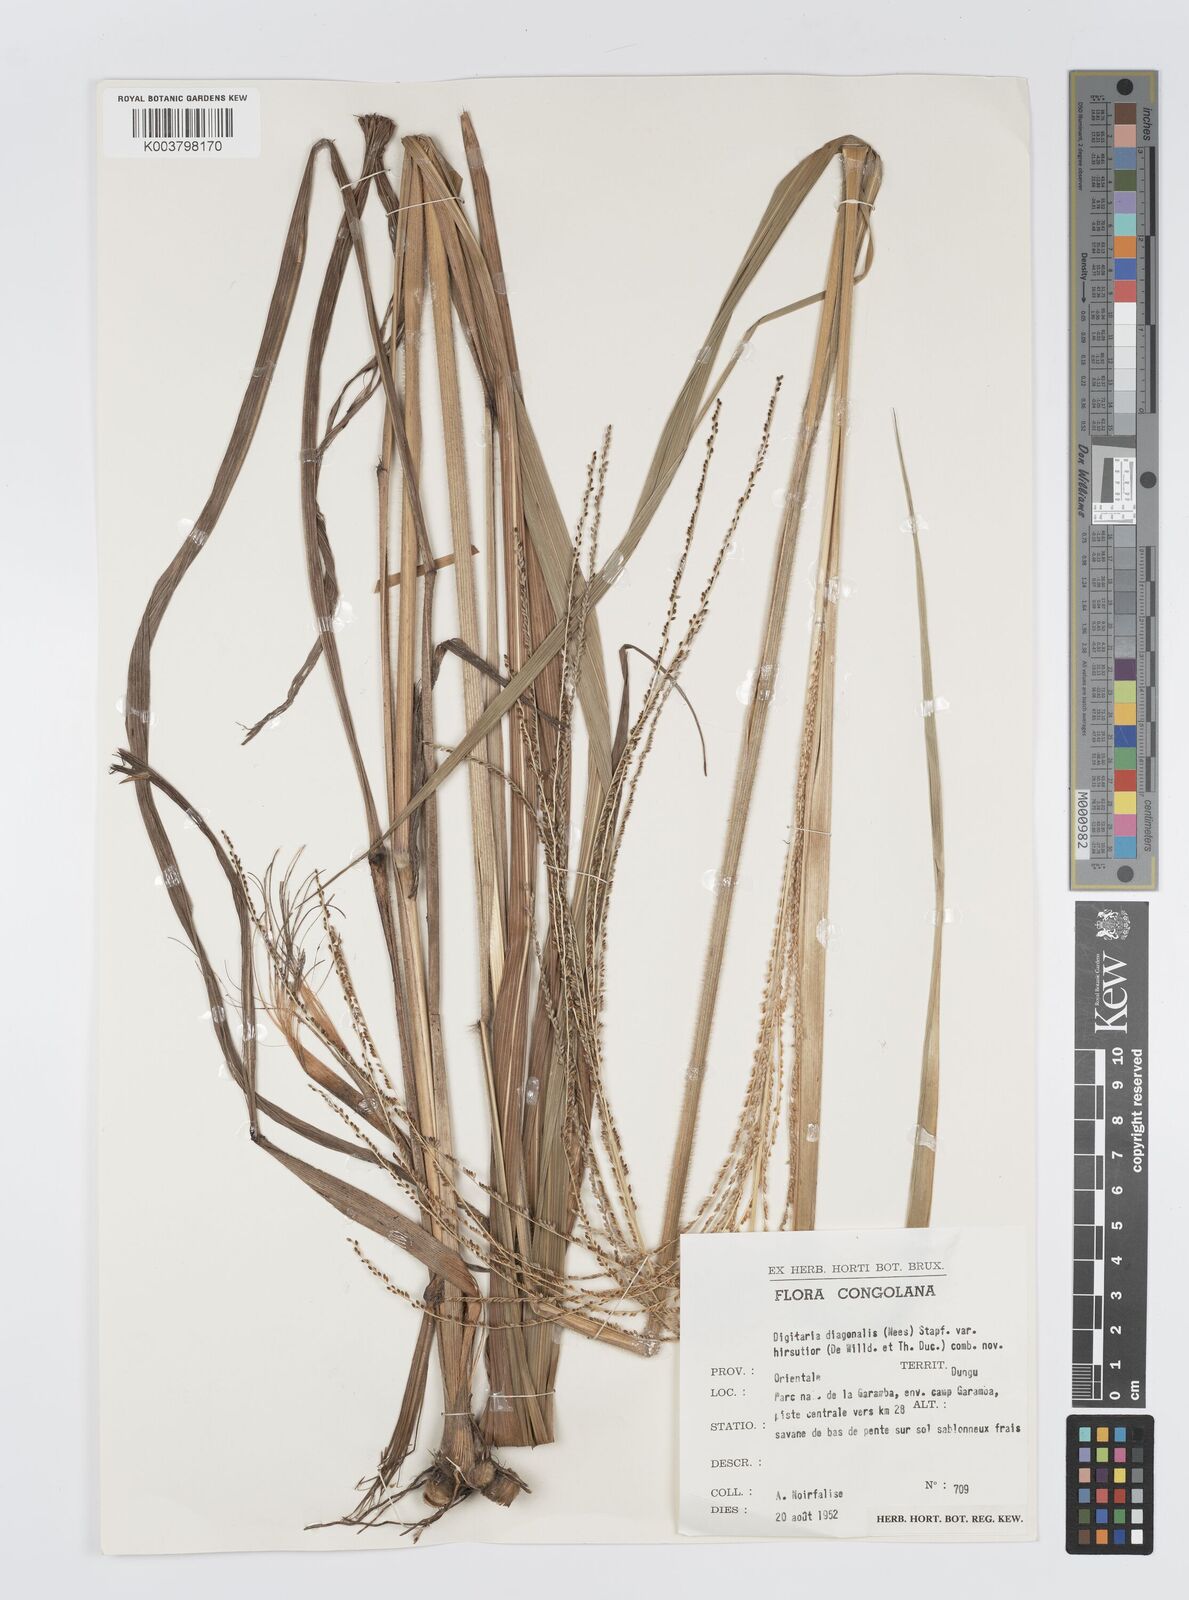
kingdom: Plantae
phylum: Tracheophyta
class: Liliopsida
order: Poales
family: Poaceae
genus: Digitaria
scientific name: Digitaria diagonalis
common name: Brown-seed finger grass
